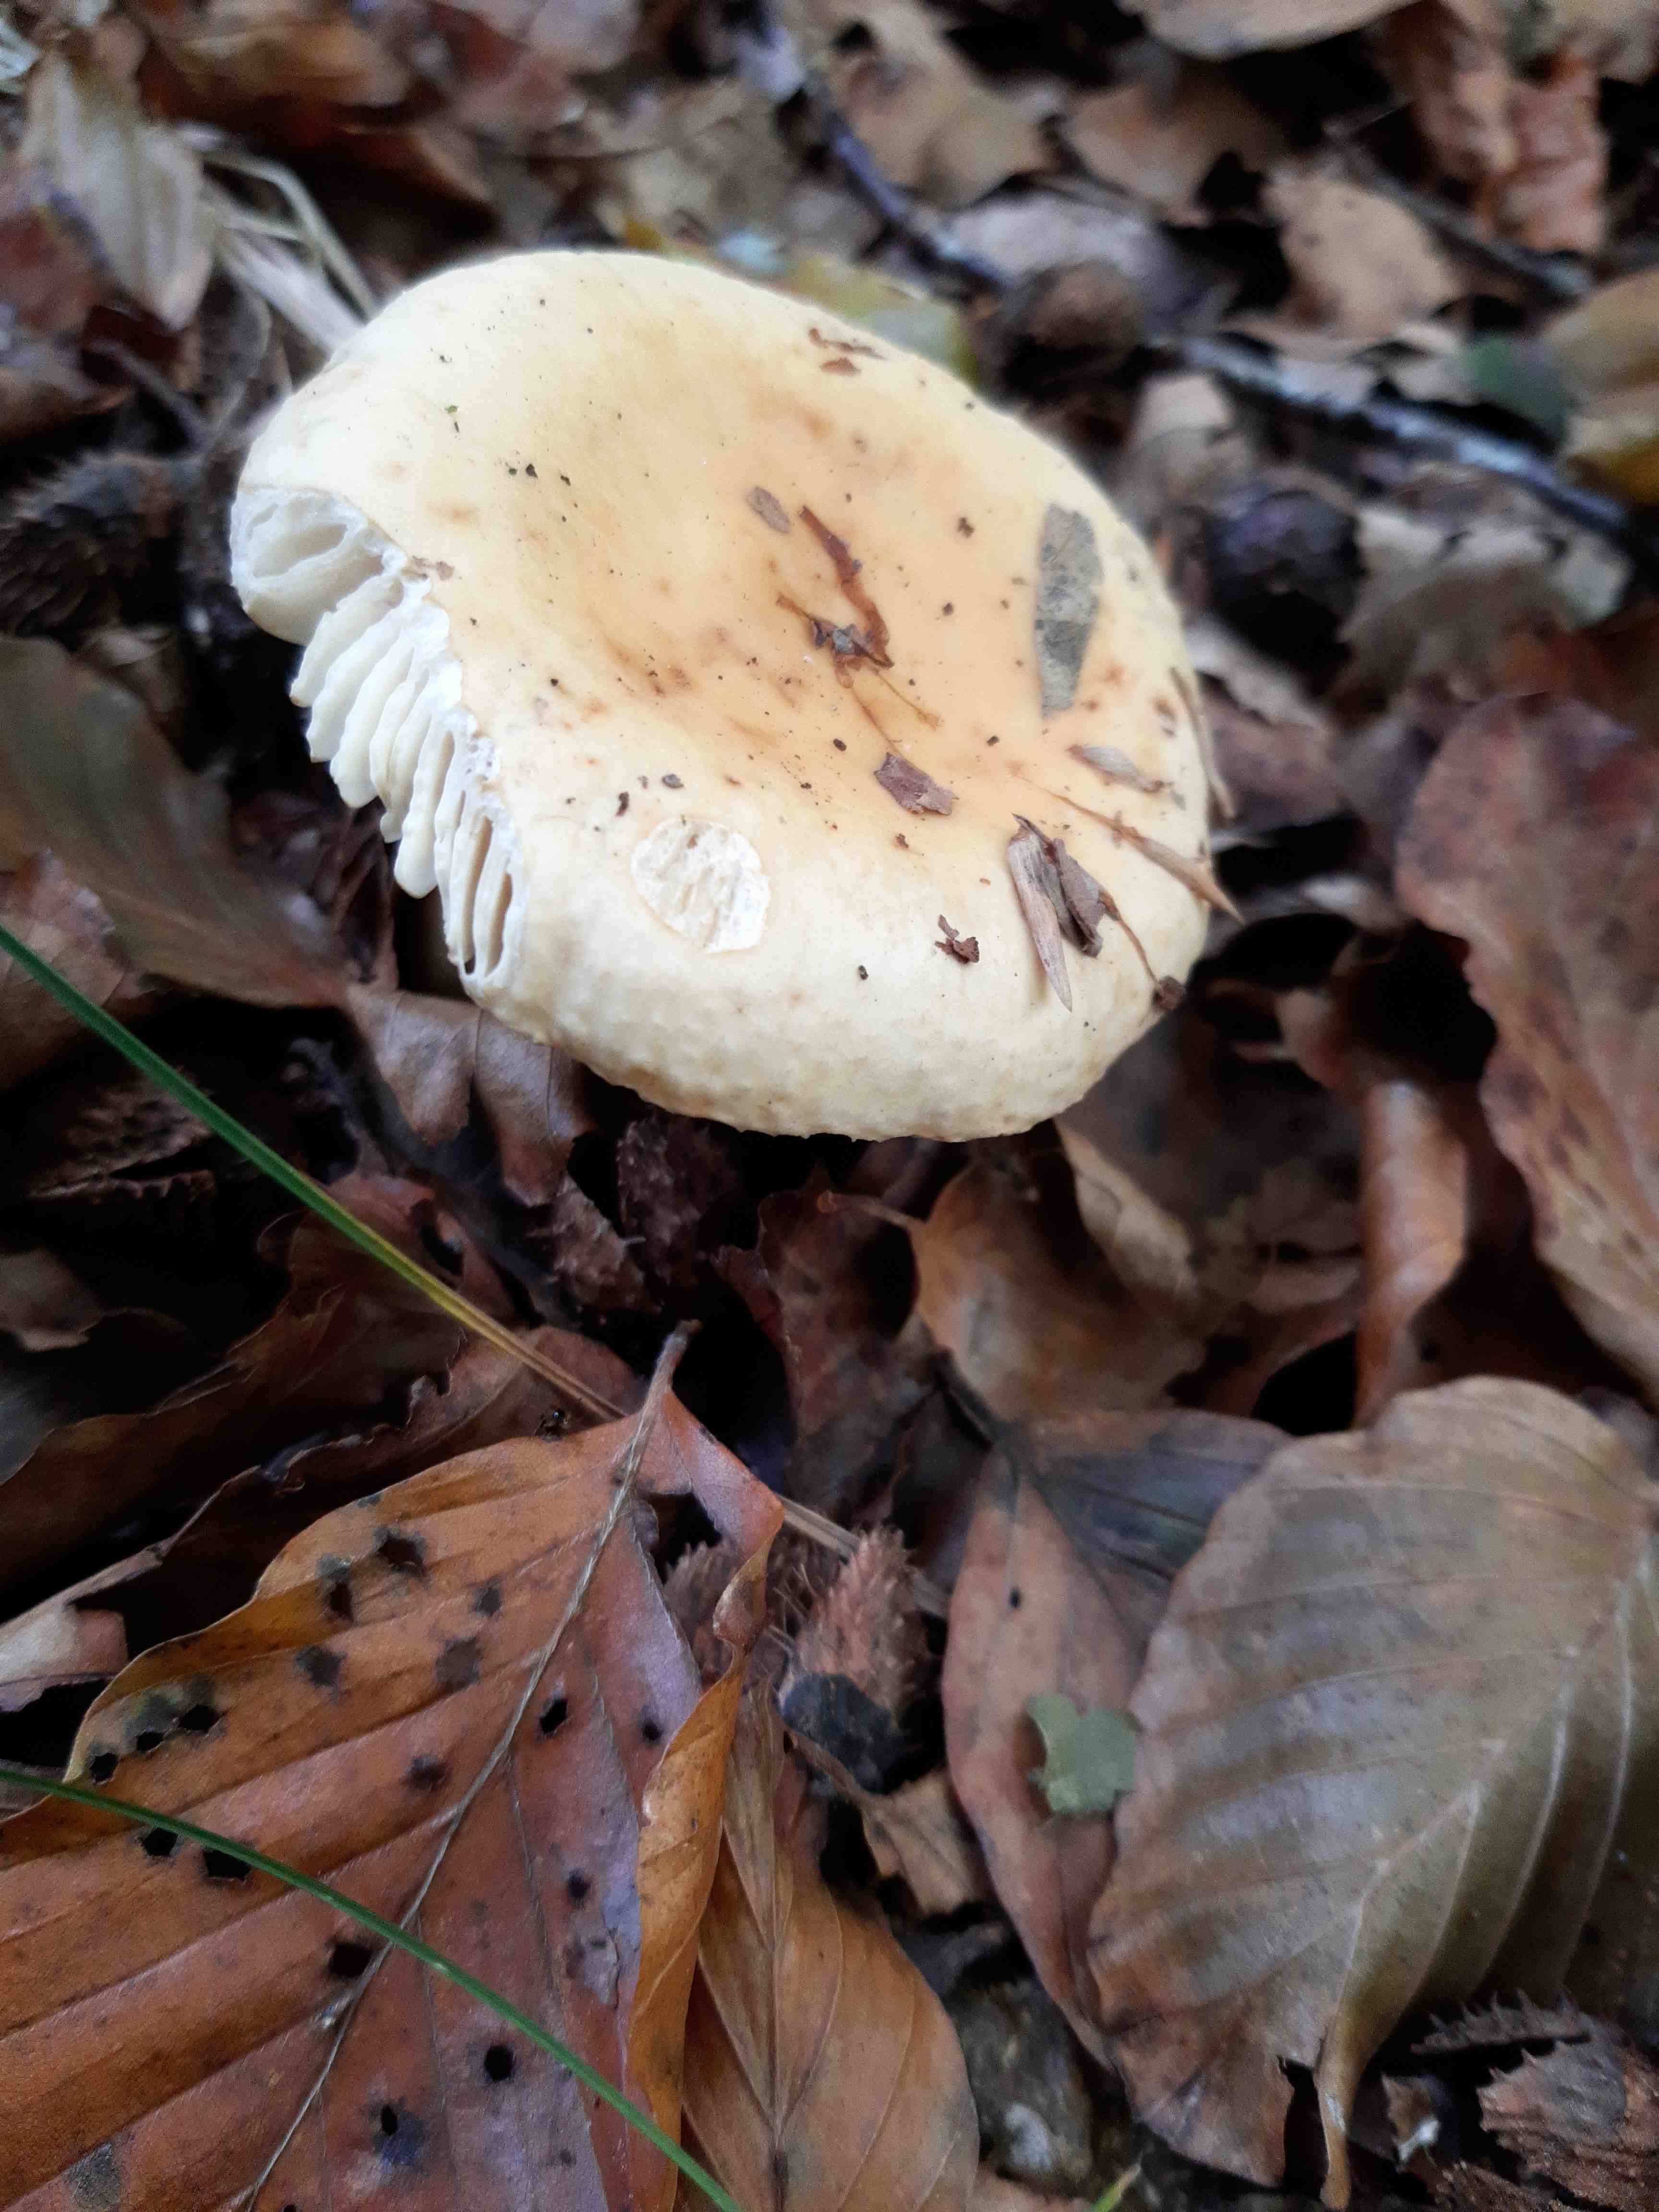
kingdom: Fungi
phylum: Basidiomycota
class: Agaricomycetes
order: Russulales
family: Russulaceae
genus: Russula
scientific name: Russula fellea
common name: galde-skørhat
